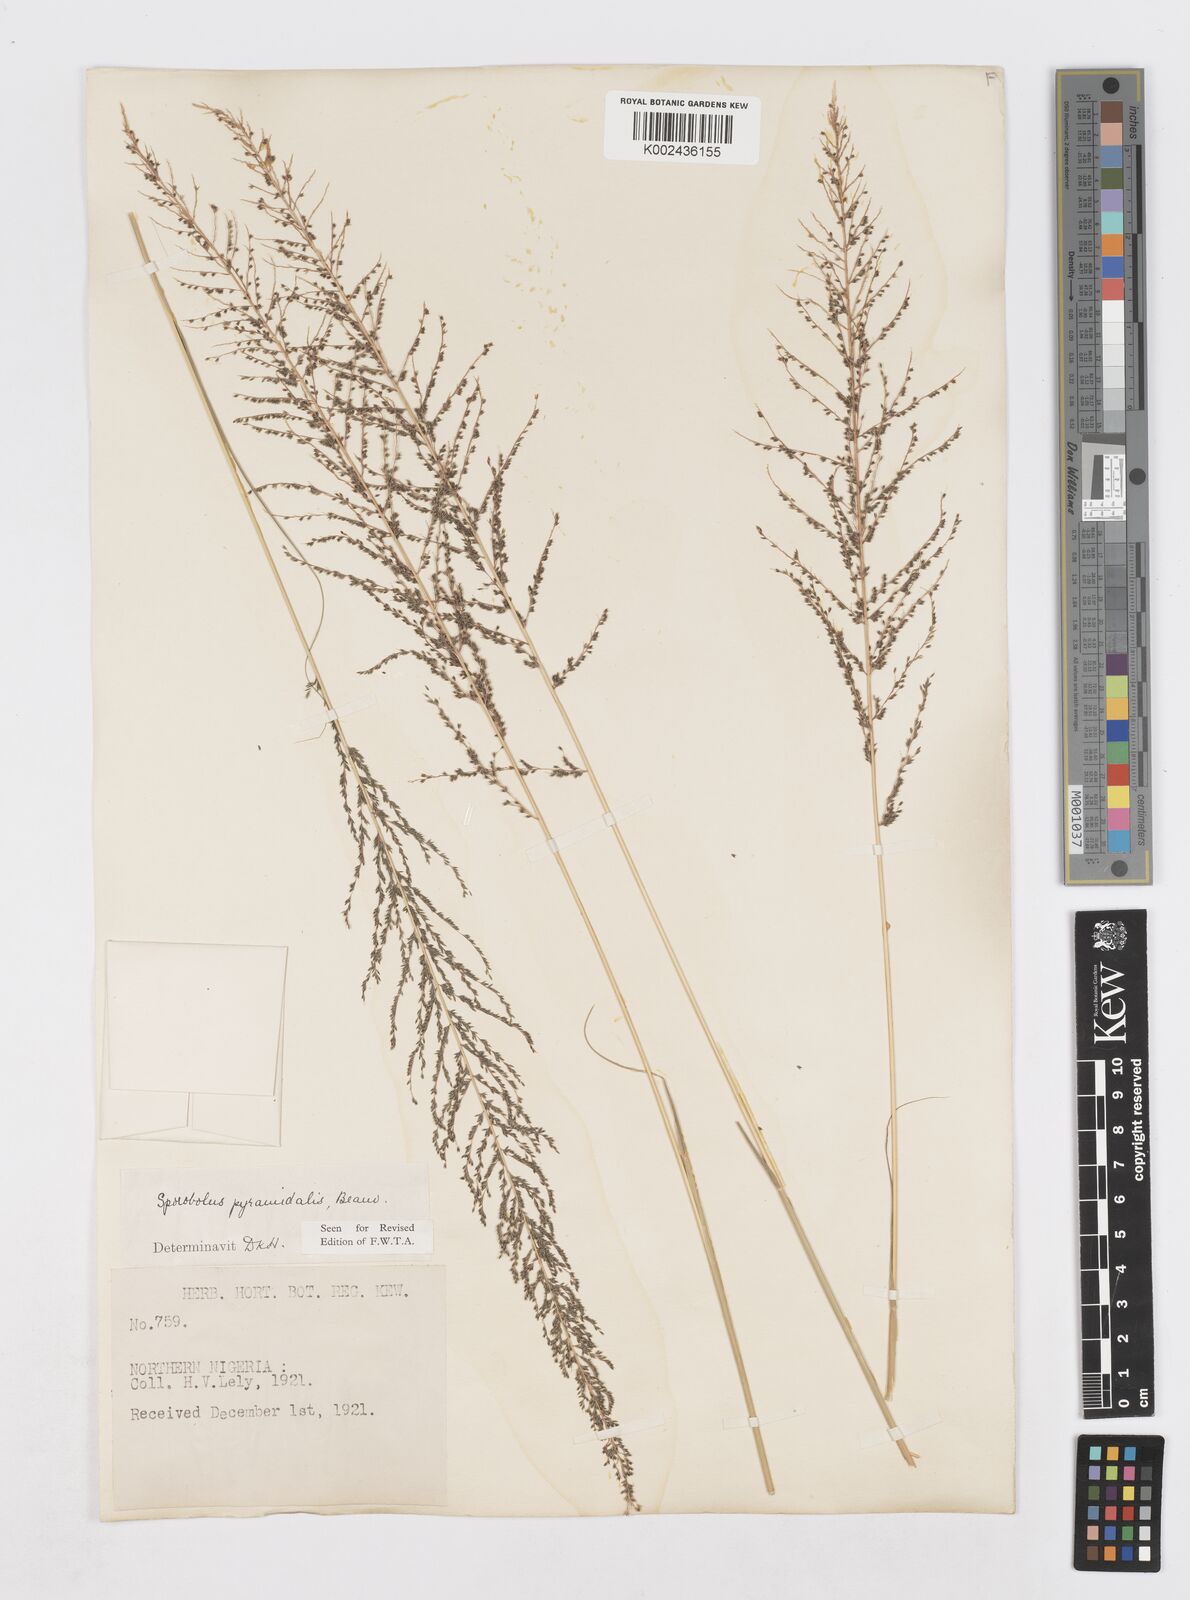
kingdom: Plantae
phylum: Tracheophyta
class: Liliopsida
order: Poales
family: Poaceae
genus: Sporobolus
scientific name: Sporobolus pyramidalis
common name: West indian dropseed
